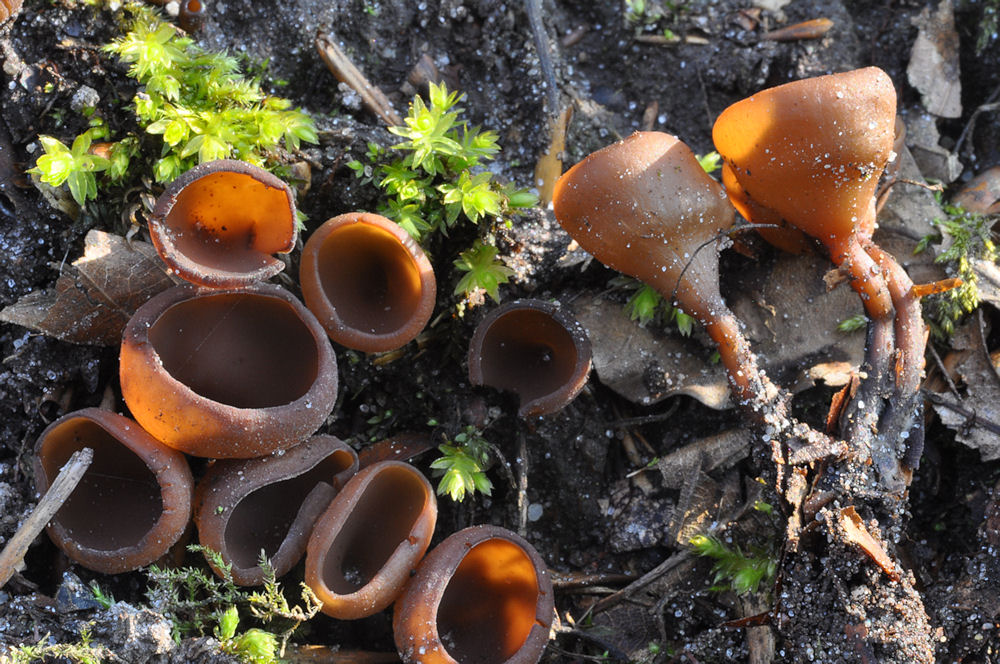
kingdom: Fungi
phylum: Ascomycota
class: Leotiomycetes
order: Helotiales
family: Sclerotiniaceae
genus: Dumontinia
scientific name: Dumontinia tuberosa
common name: anemone-knoldskive
